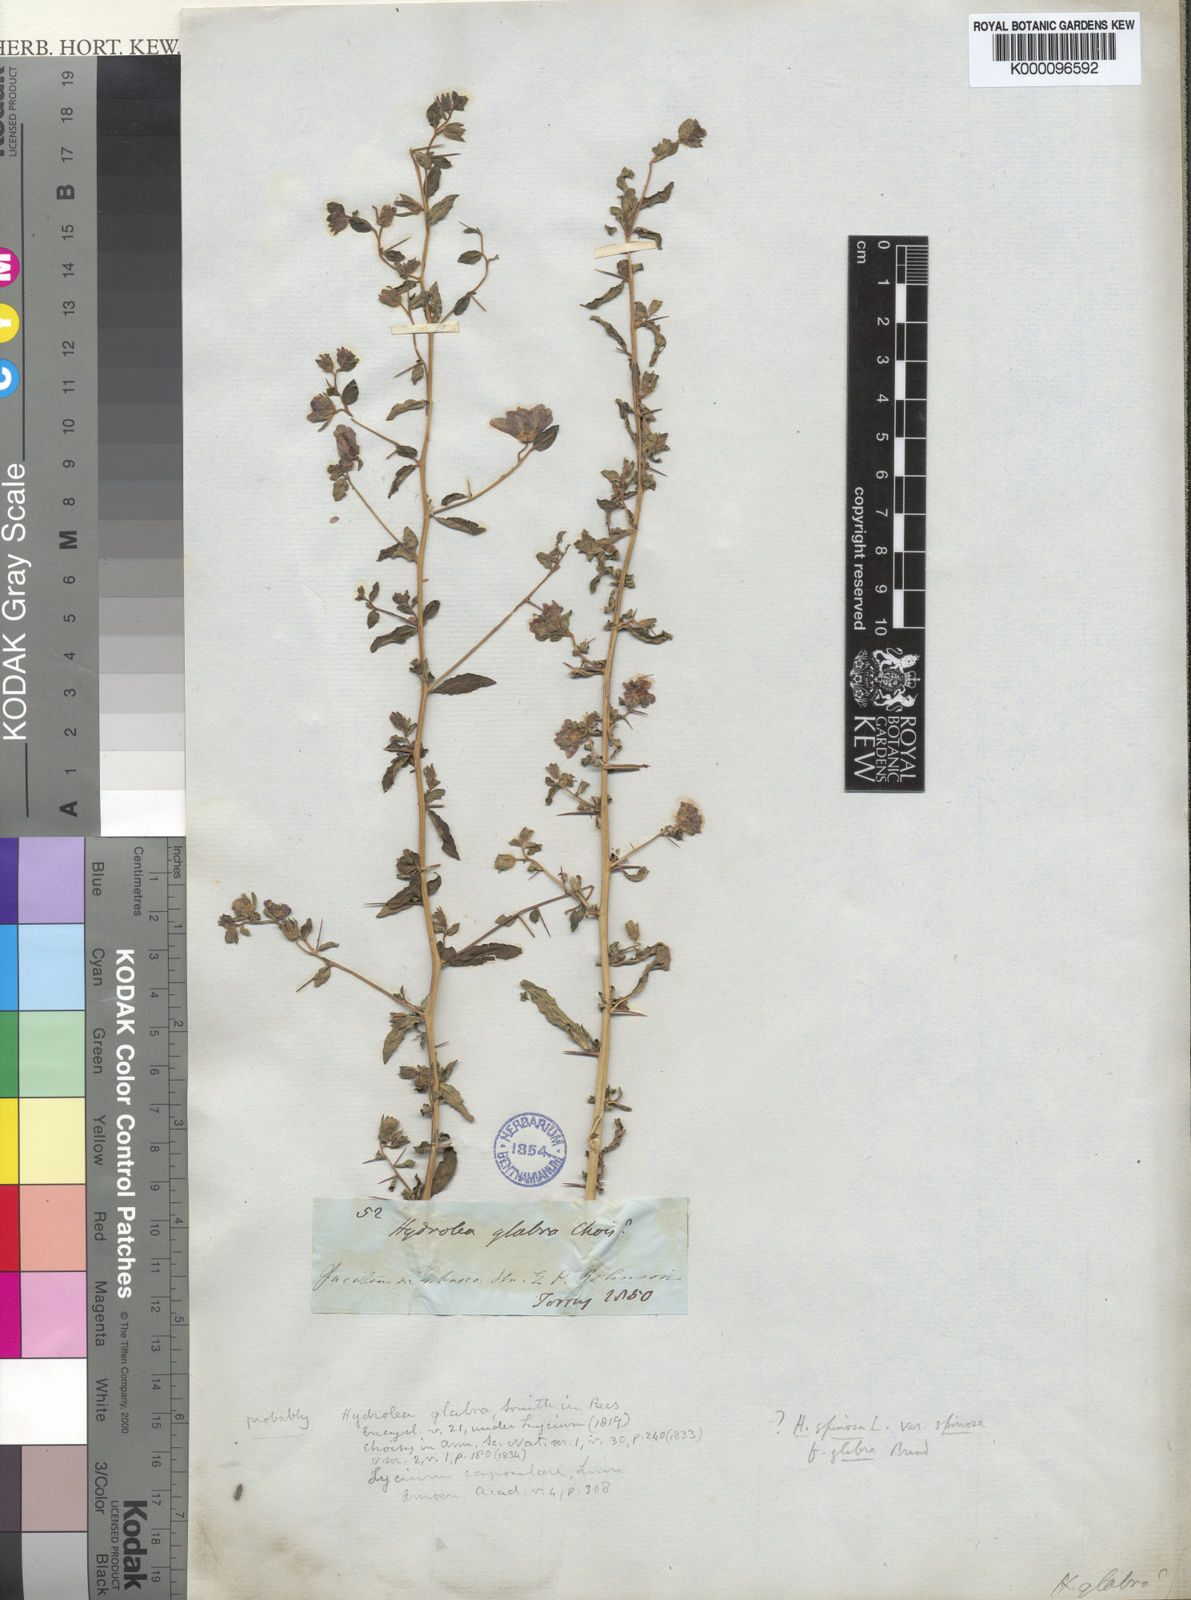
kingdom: Plantae
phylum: Tracheophyta
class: Magnoliopsida
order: Solanales
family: Hydroleaceae
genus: Hydrolea
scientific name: Hydrolea
